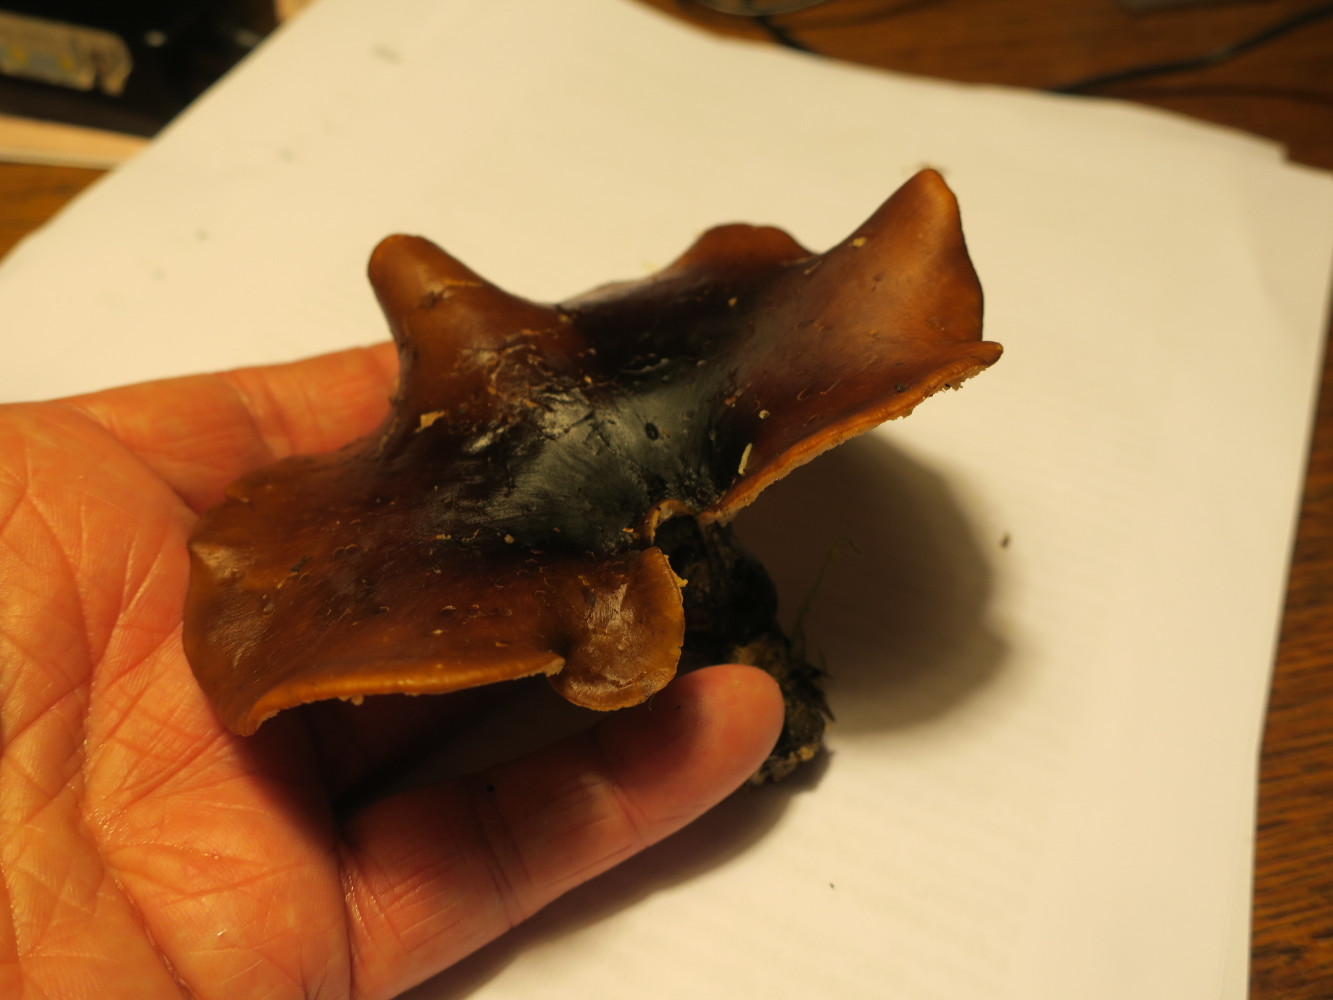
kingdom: Fungi
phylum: Basidiomycota
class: Agaricomycetes
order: Polyporales
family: Polyporaceae
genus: Picipes
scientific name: Picipes badius
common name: kastaniebrun stilkporesvamp
